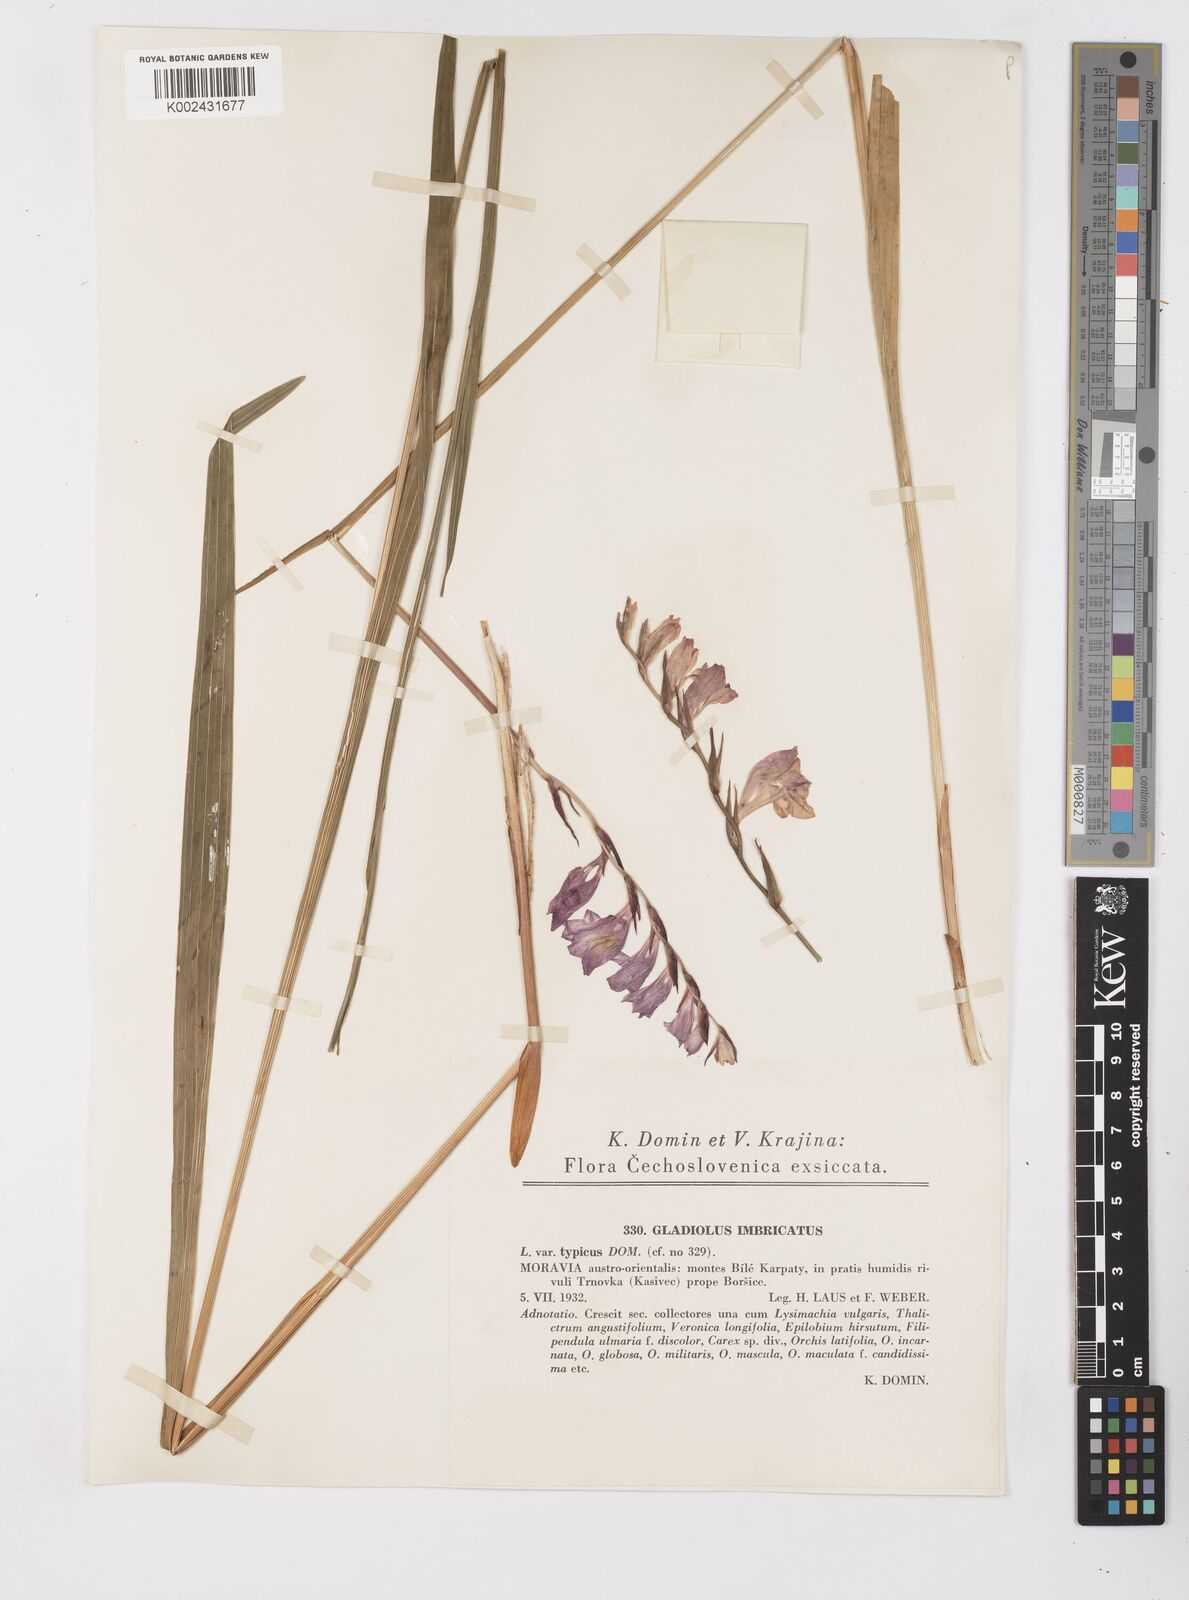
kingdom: Plantae
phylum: Tracheophyta
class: Liliopsida
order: Asparagales
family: Iridaceae
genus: Gladiolus
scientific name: Gladiolus imbricatus
